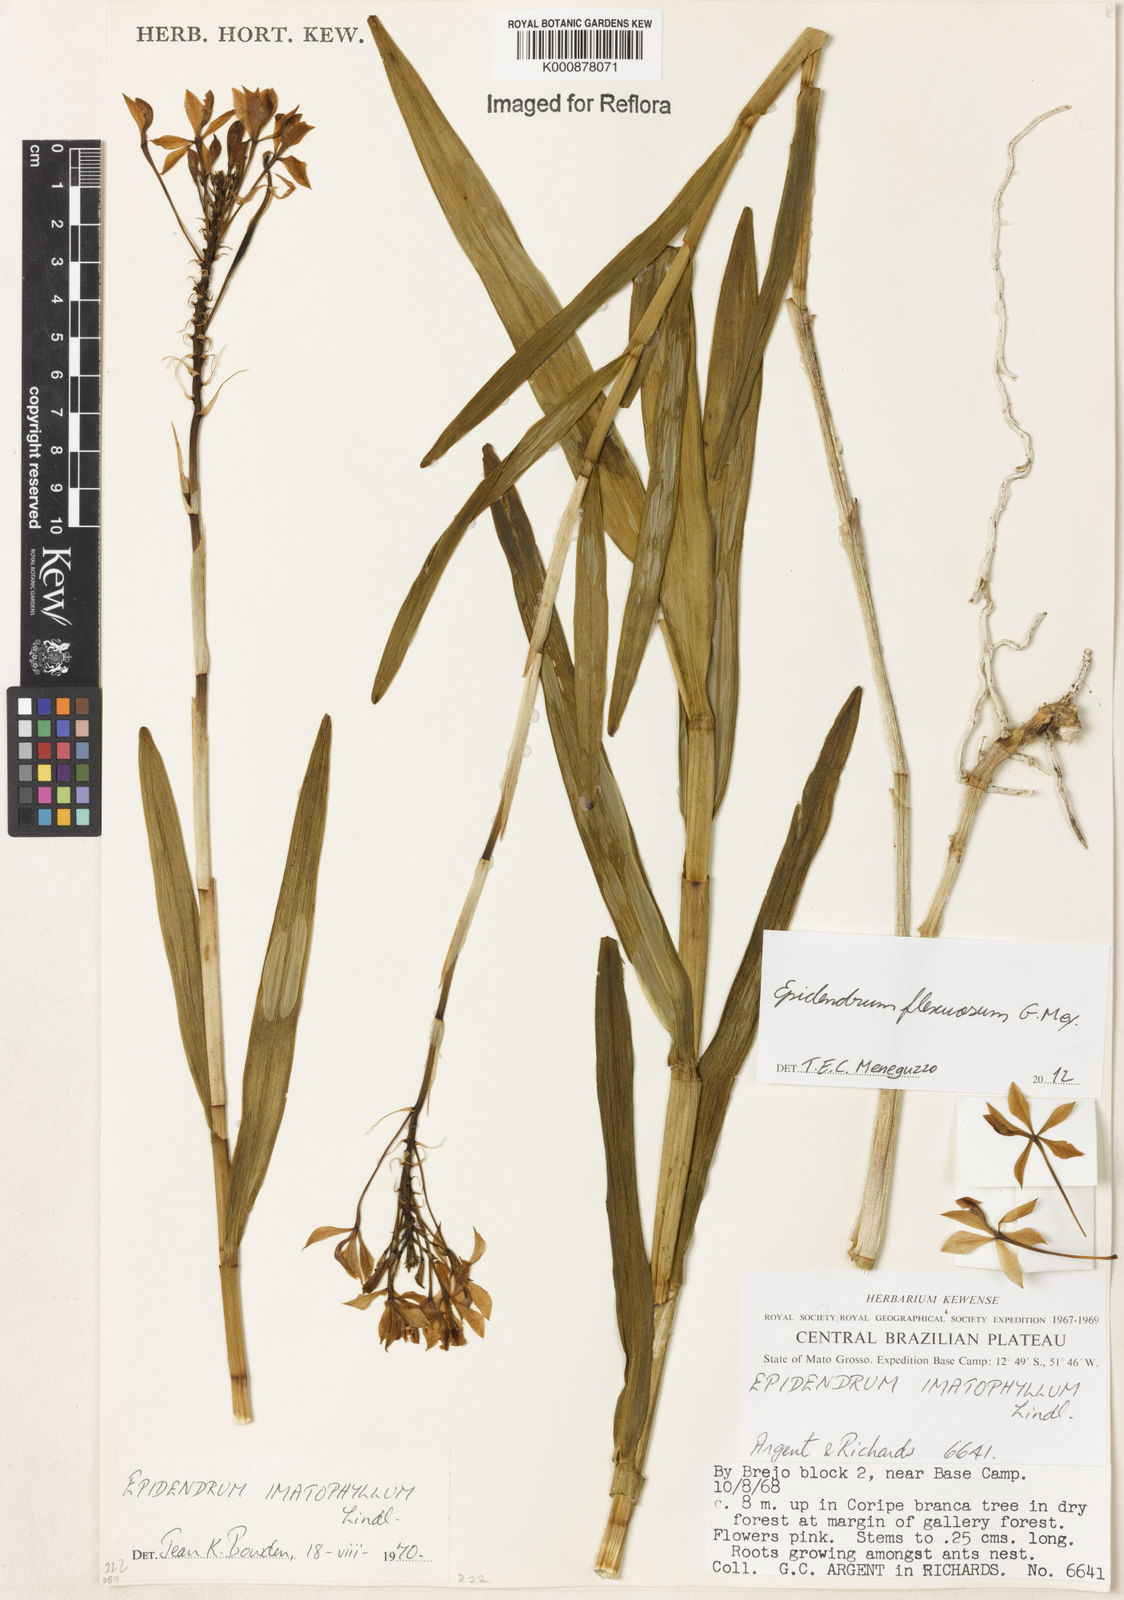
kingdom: Plantae
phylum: Tracheophyta
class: Liliopsida
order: Asparagales
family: Orchidaceae
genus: Epidendrum
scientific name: Epidendrum flexuosum
